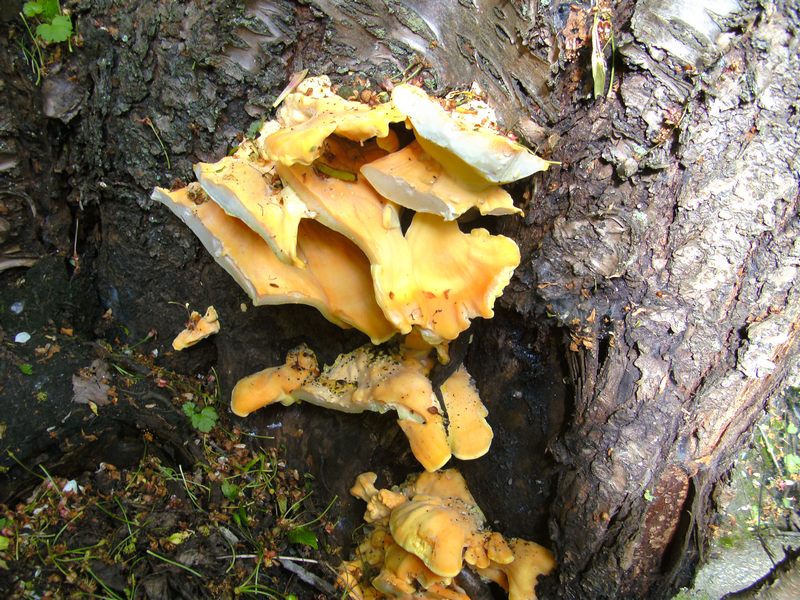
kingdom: Fungi
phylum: Basidiomycota
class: Agaricomycetes
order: Polyporales
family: Laetiporaceae
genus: Laetiporus
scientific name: Laetiporus sulphureus
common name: svovlporesvamp
